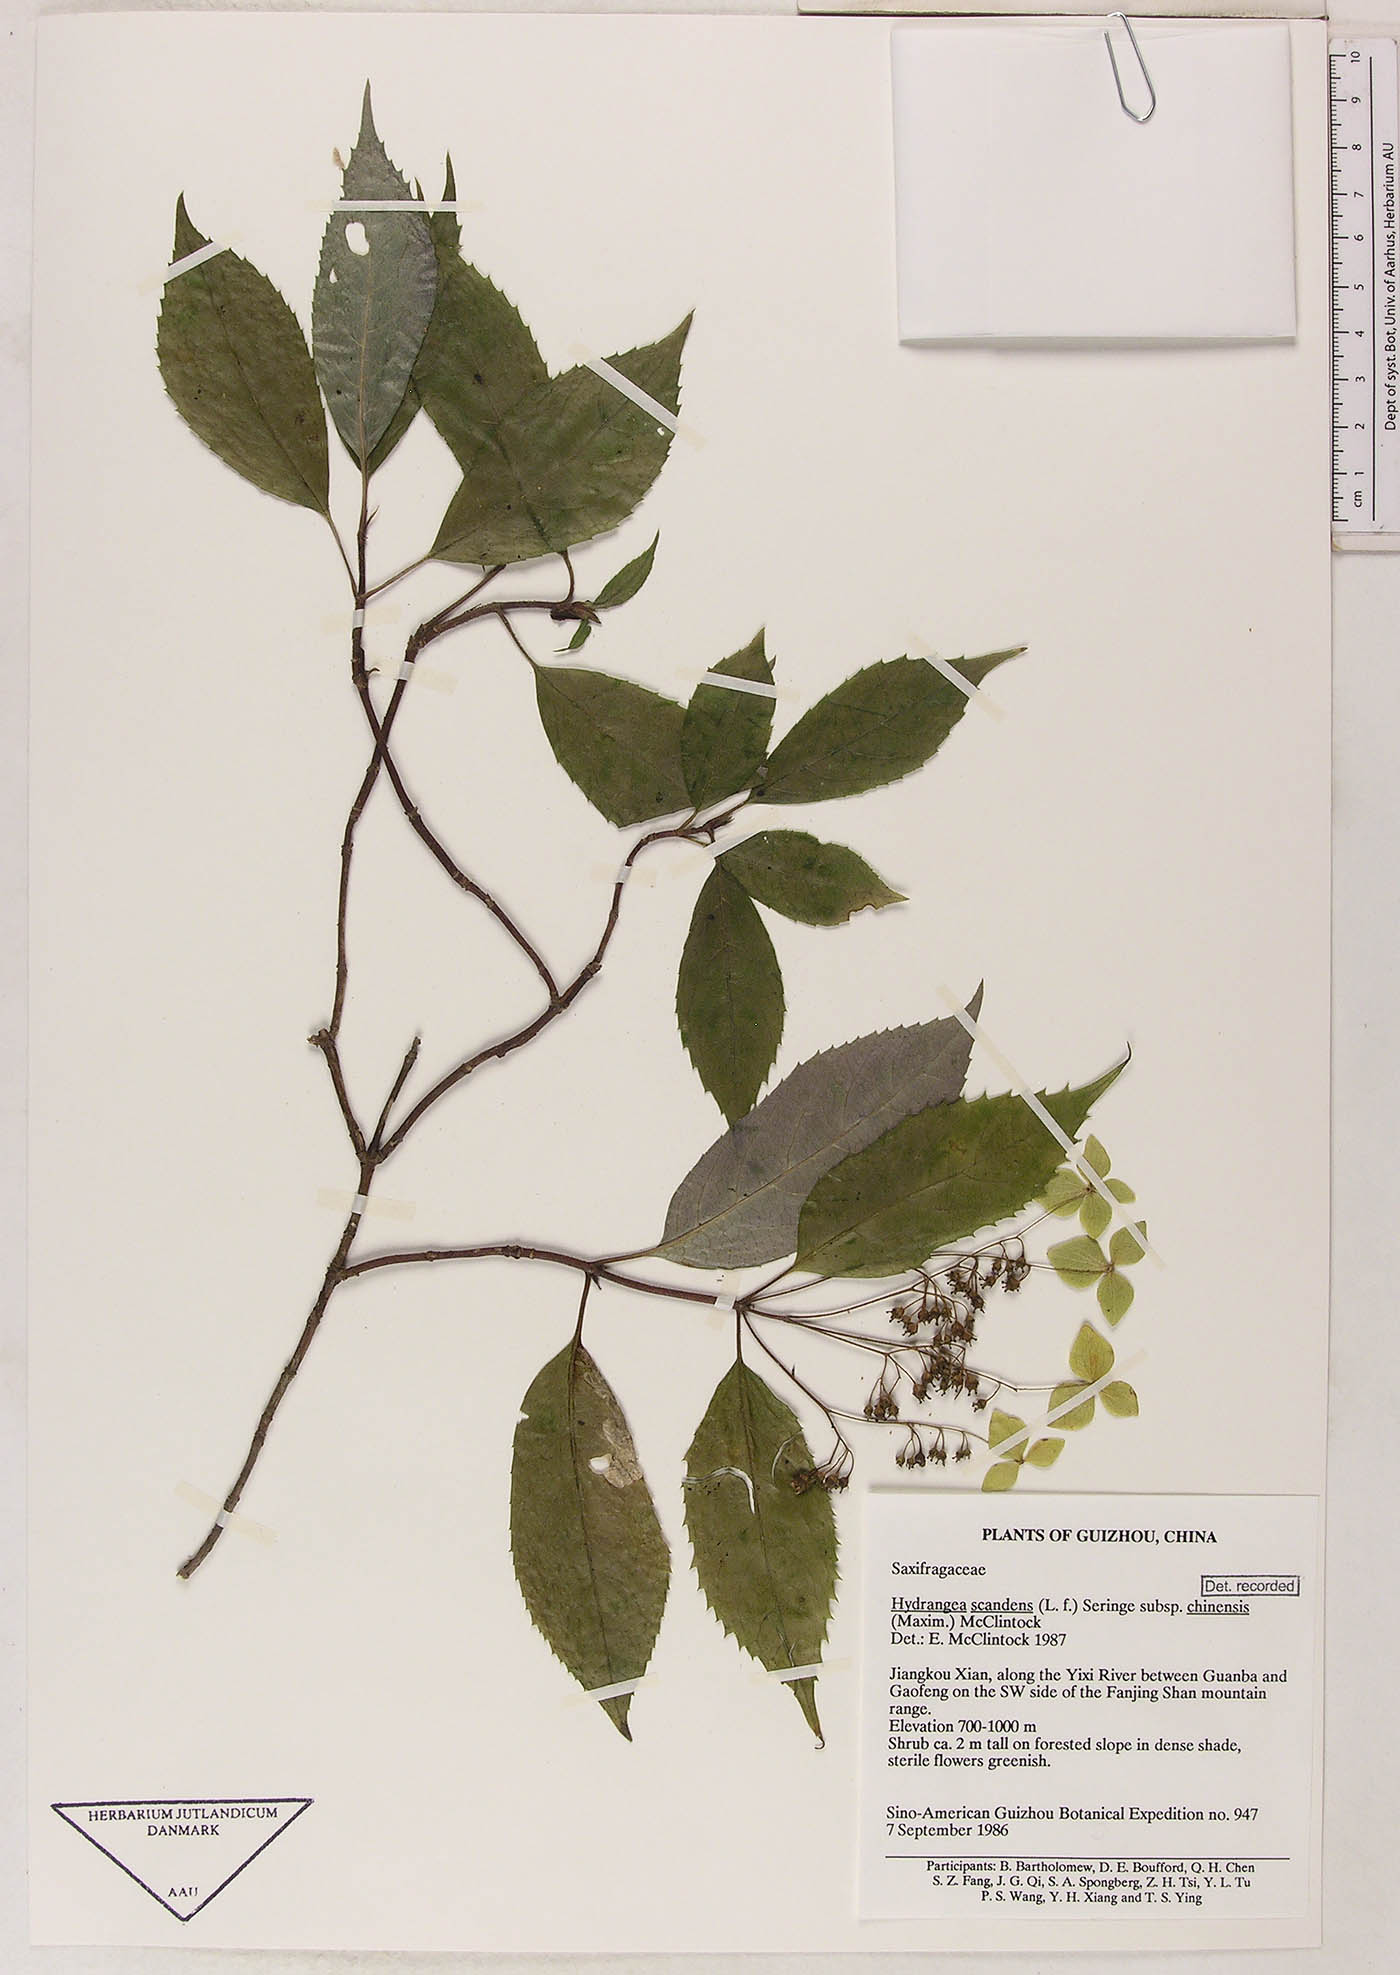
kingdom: Plantae
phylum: Tracheophyta
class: Magnoliopsida
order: Cornales
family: Hydrangeaceae
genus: Hydrangea
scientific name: Hydrangea chinensis
